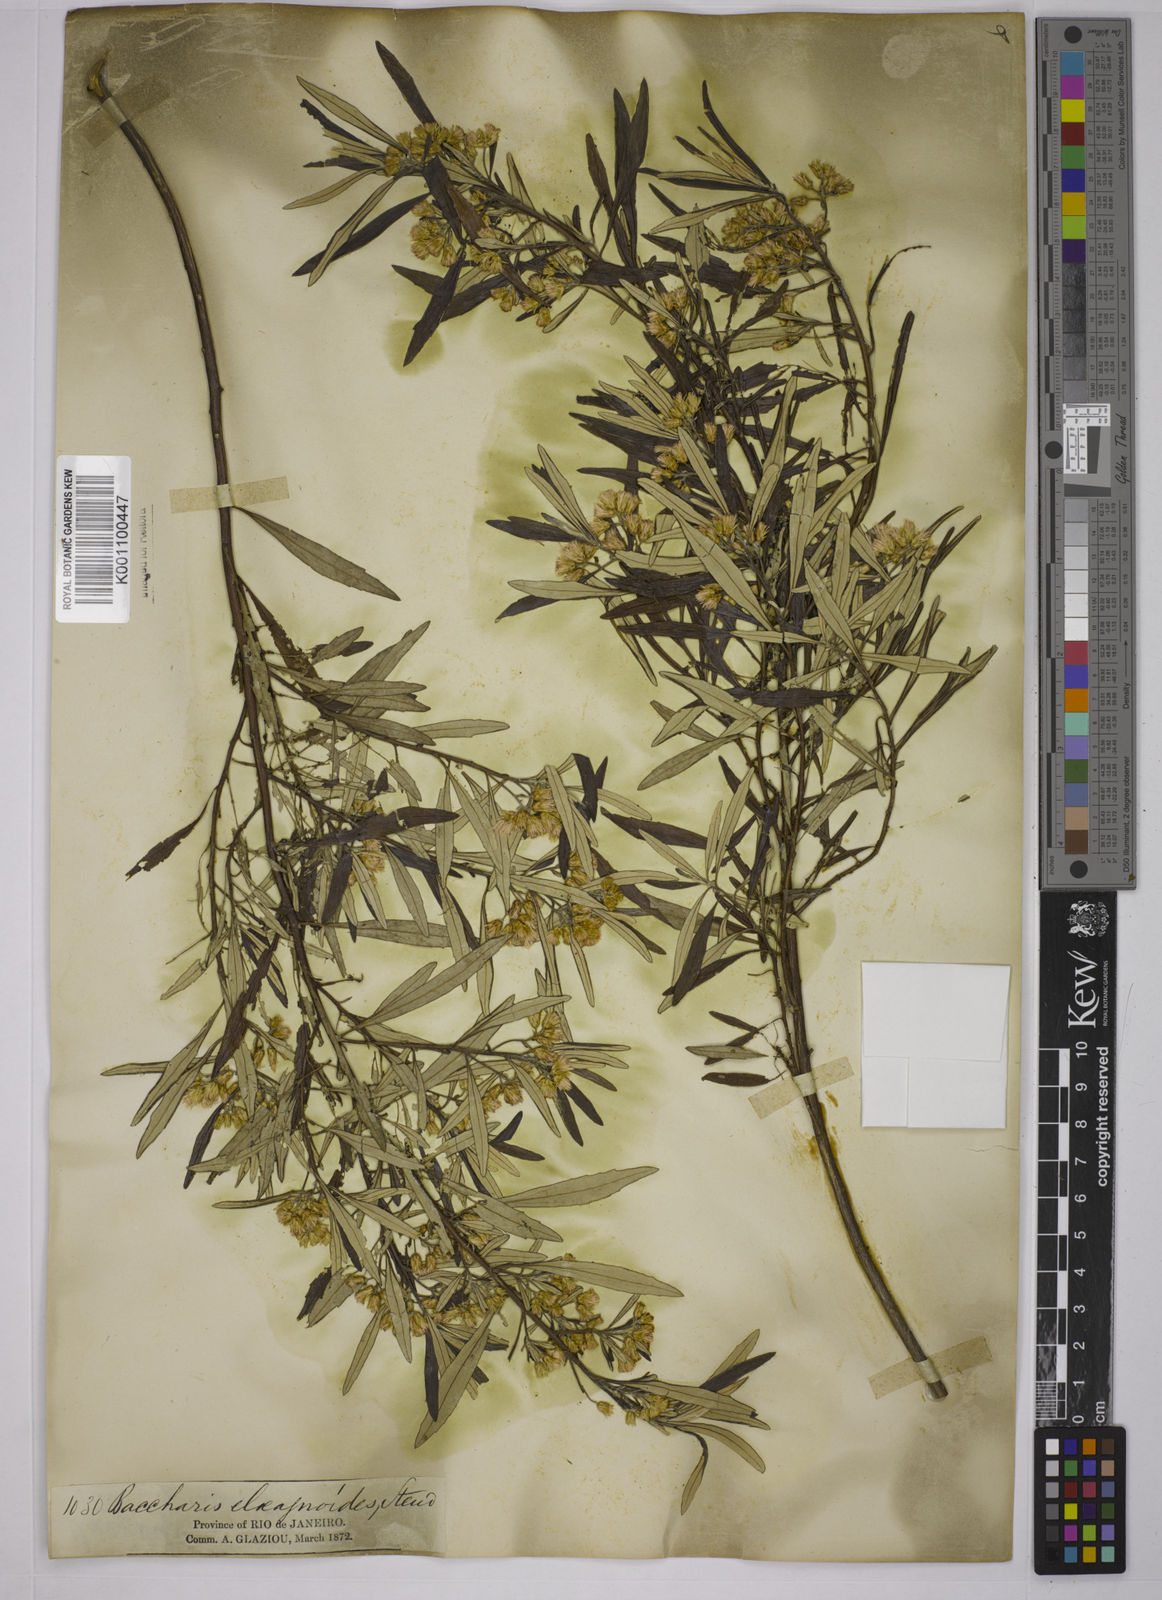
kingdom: Plantae
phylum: Tracheophyta
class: Magnoliopsida
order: Asterales
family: Asteraceae
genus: Baccharis
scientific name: Baccharis
